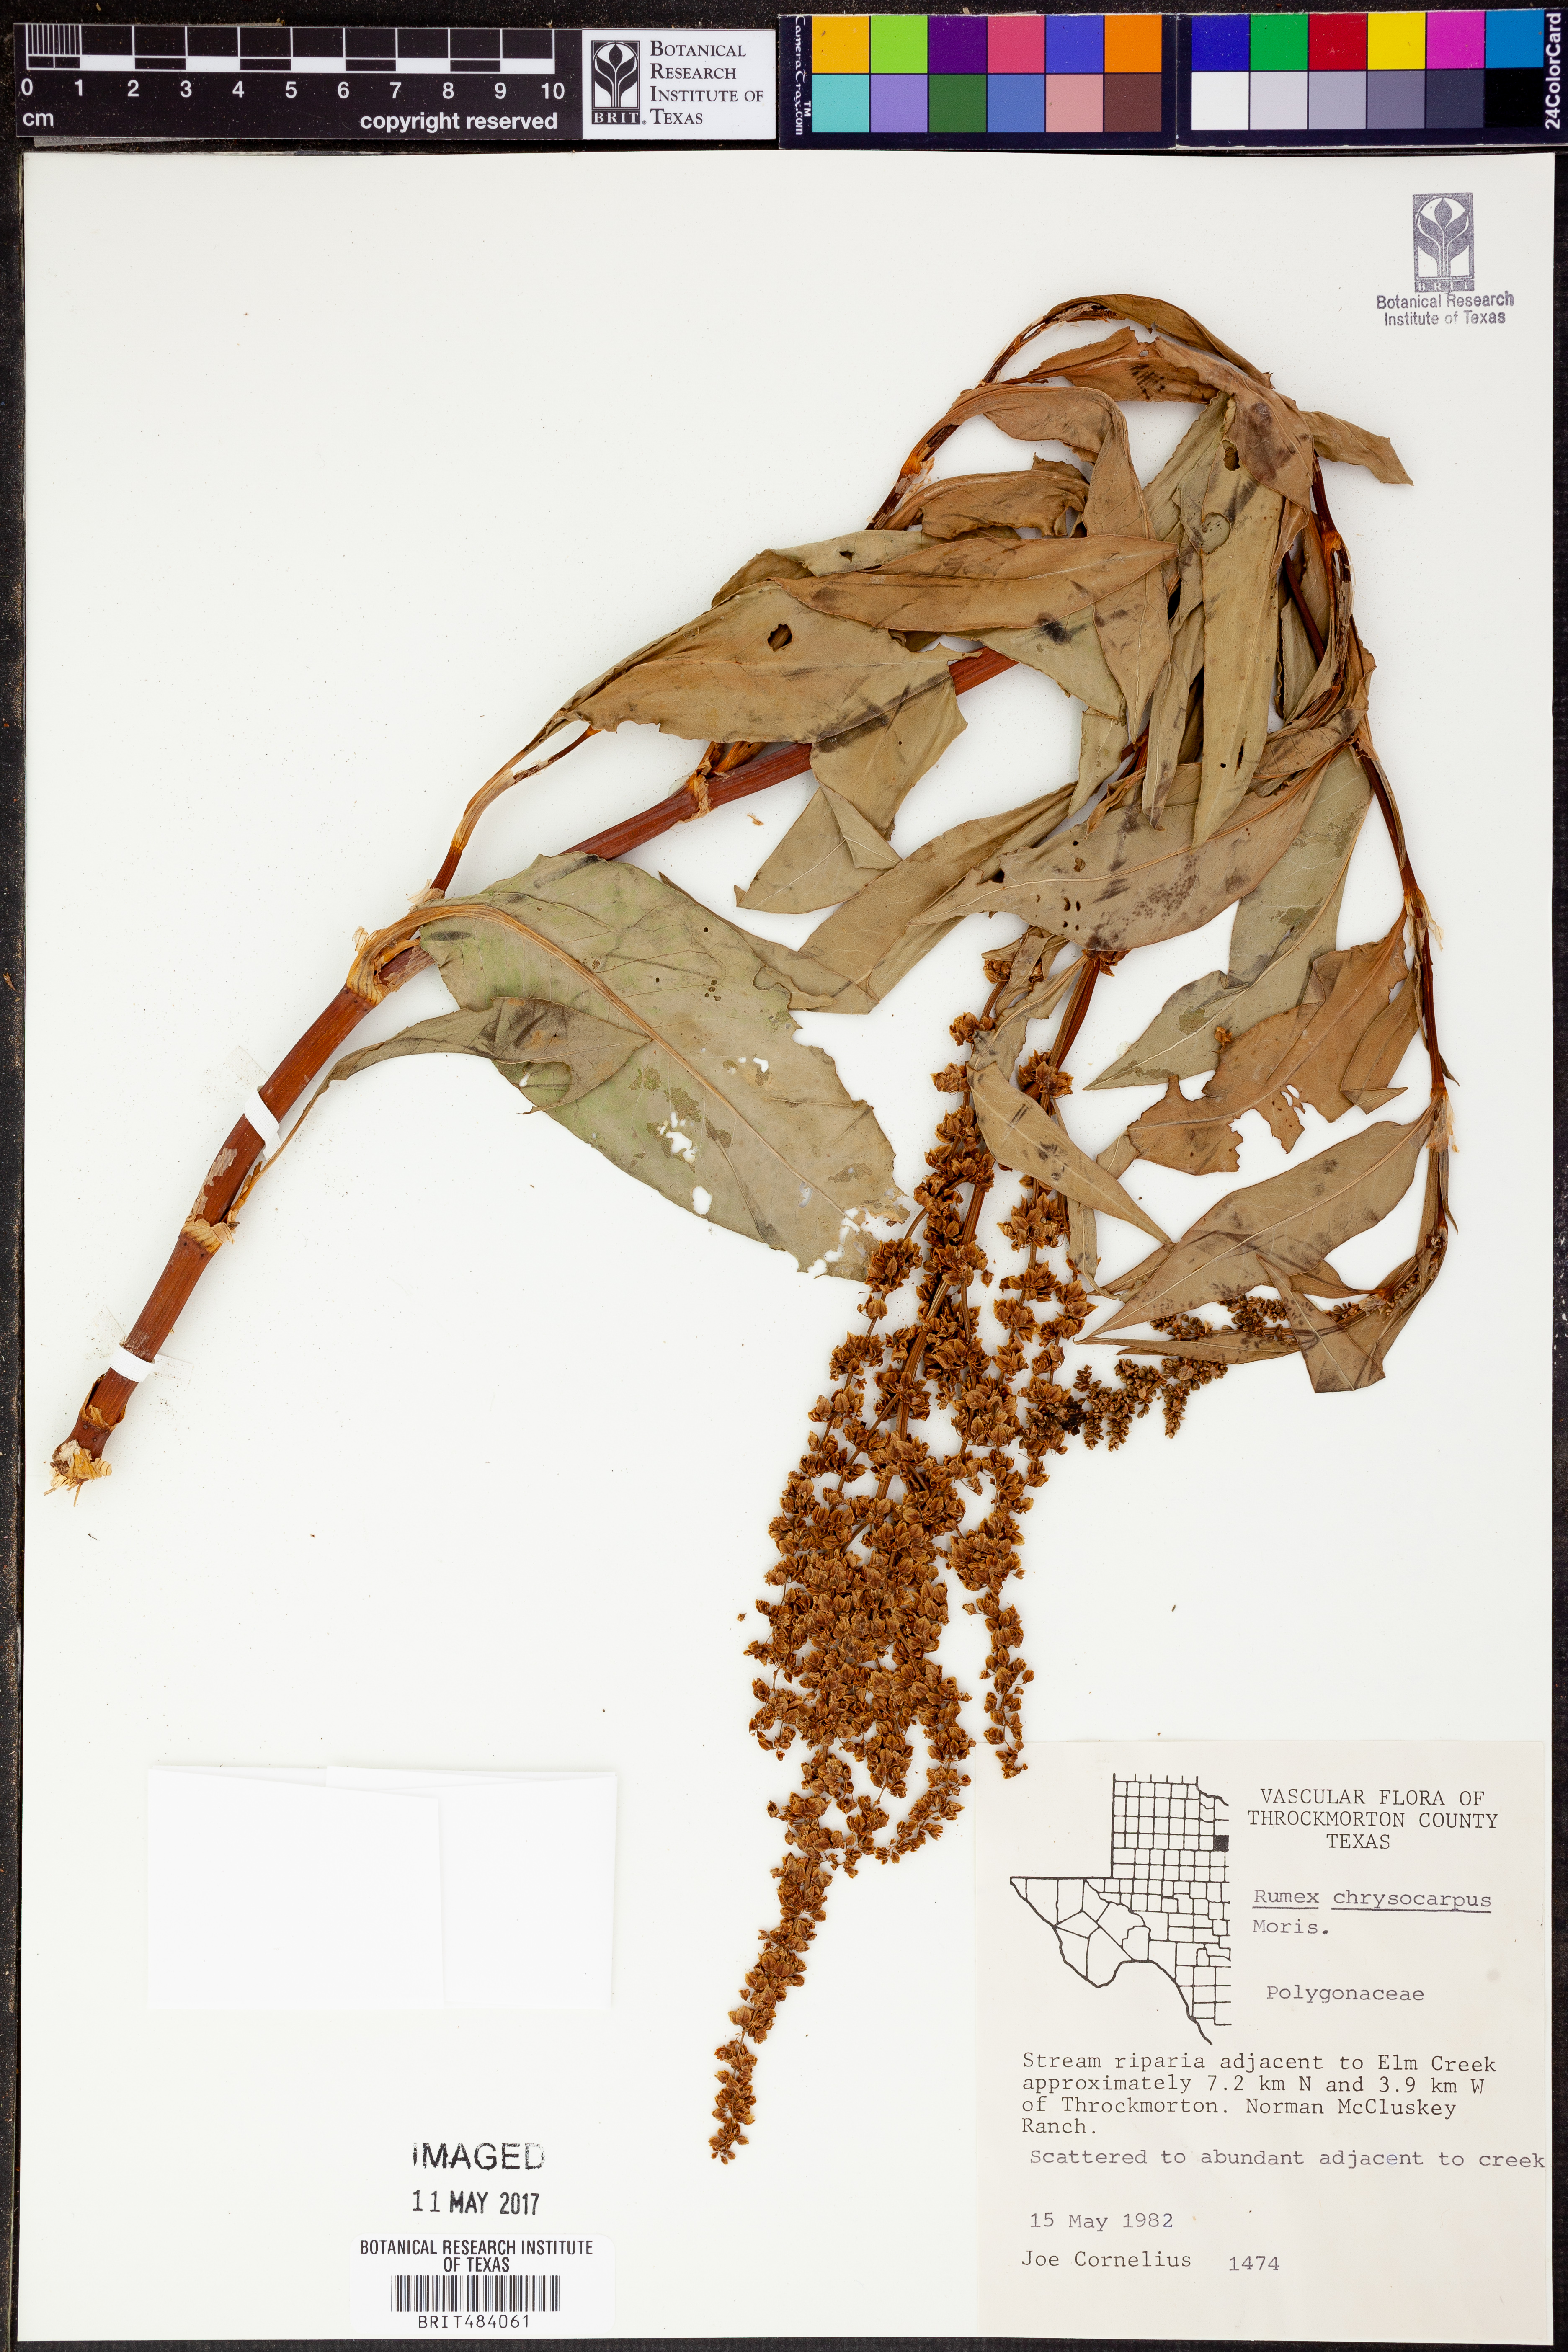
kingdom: Plantae
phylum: Tracheophyta
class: Magnoliopsida
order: Caryophyllales
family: Polygonaceae
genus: Rumex
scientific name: Rumex chrysocarpus
